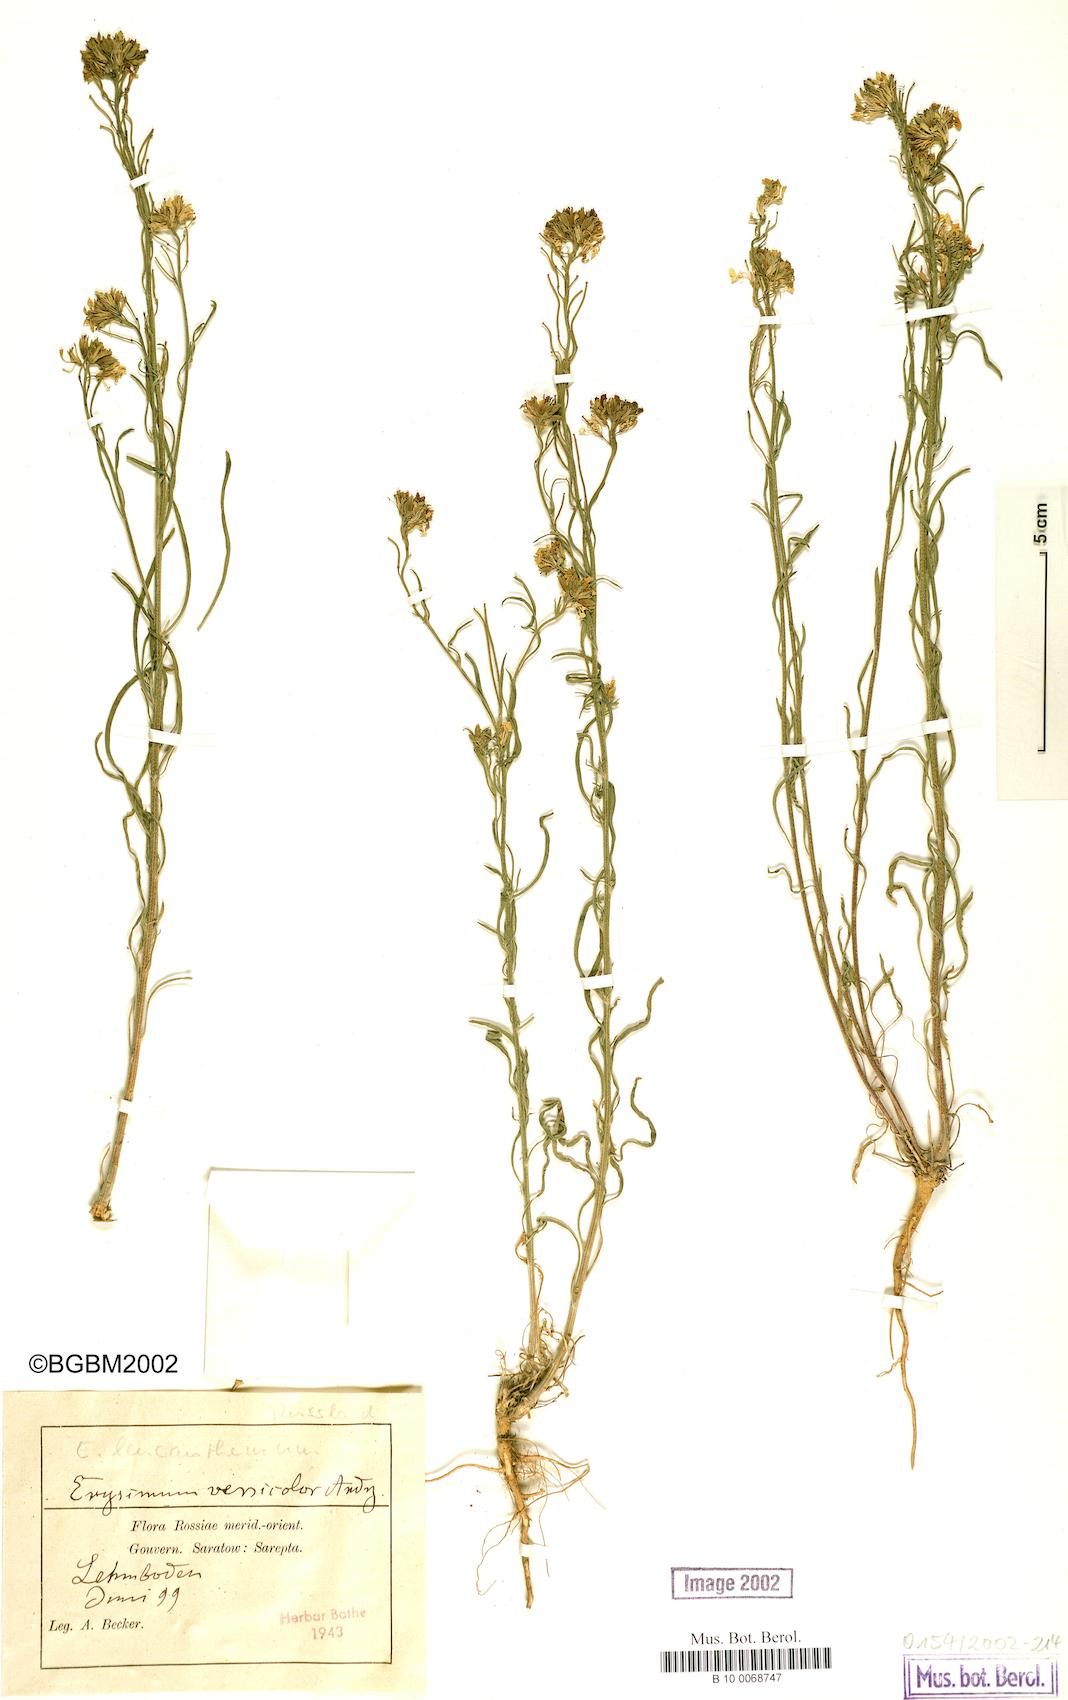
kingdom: Plantae
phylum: Tracheophyta
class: Magnoliopsida
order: Brassicales
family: Brassicaceae
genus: Erysimum
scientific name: Erysimum leucanthemum
